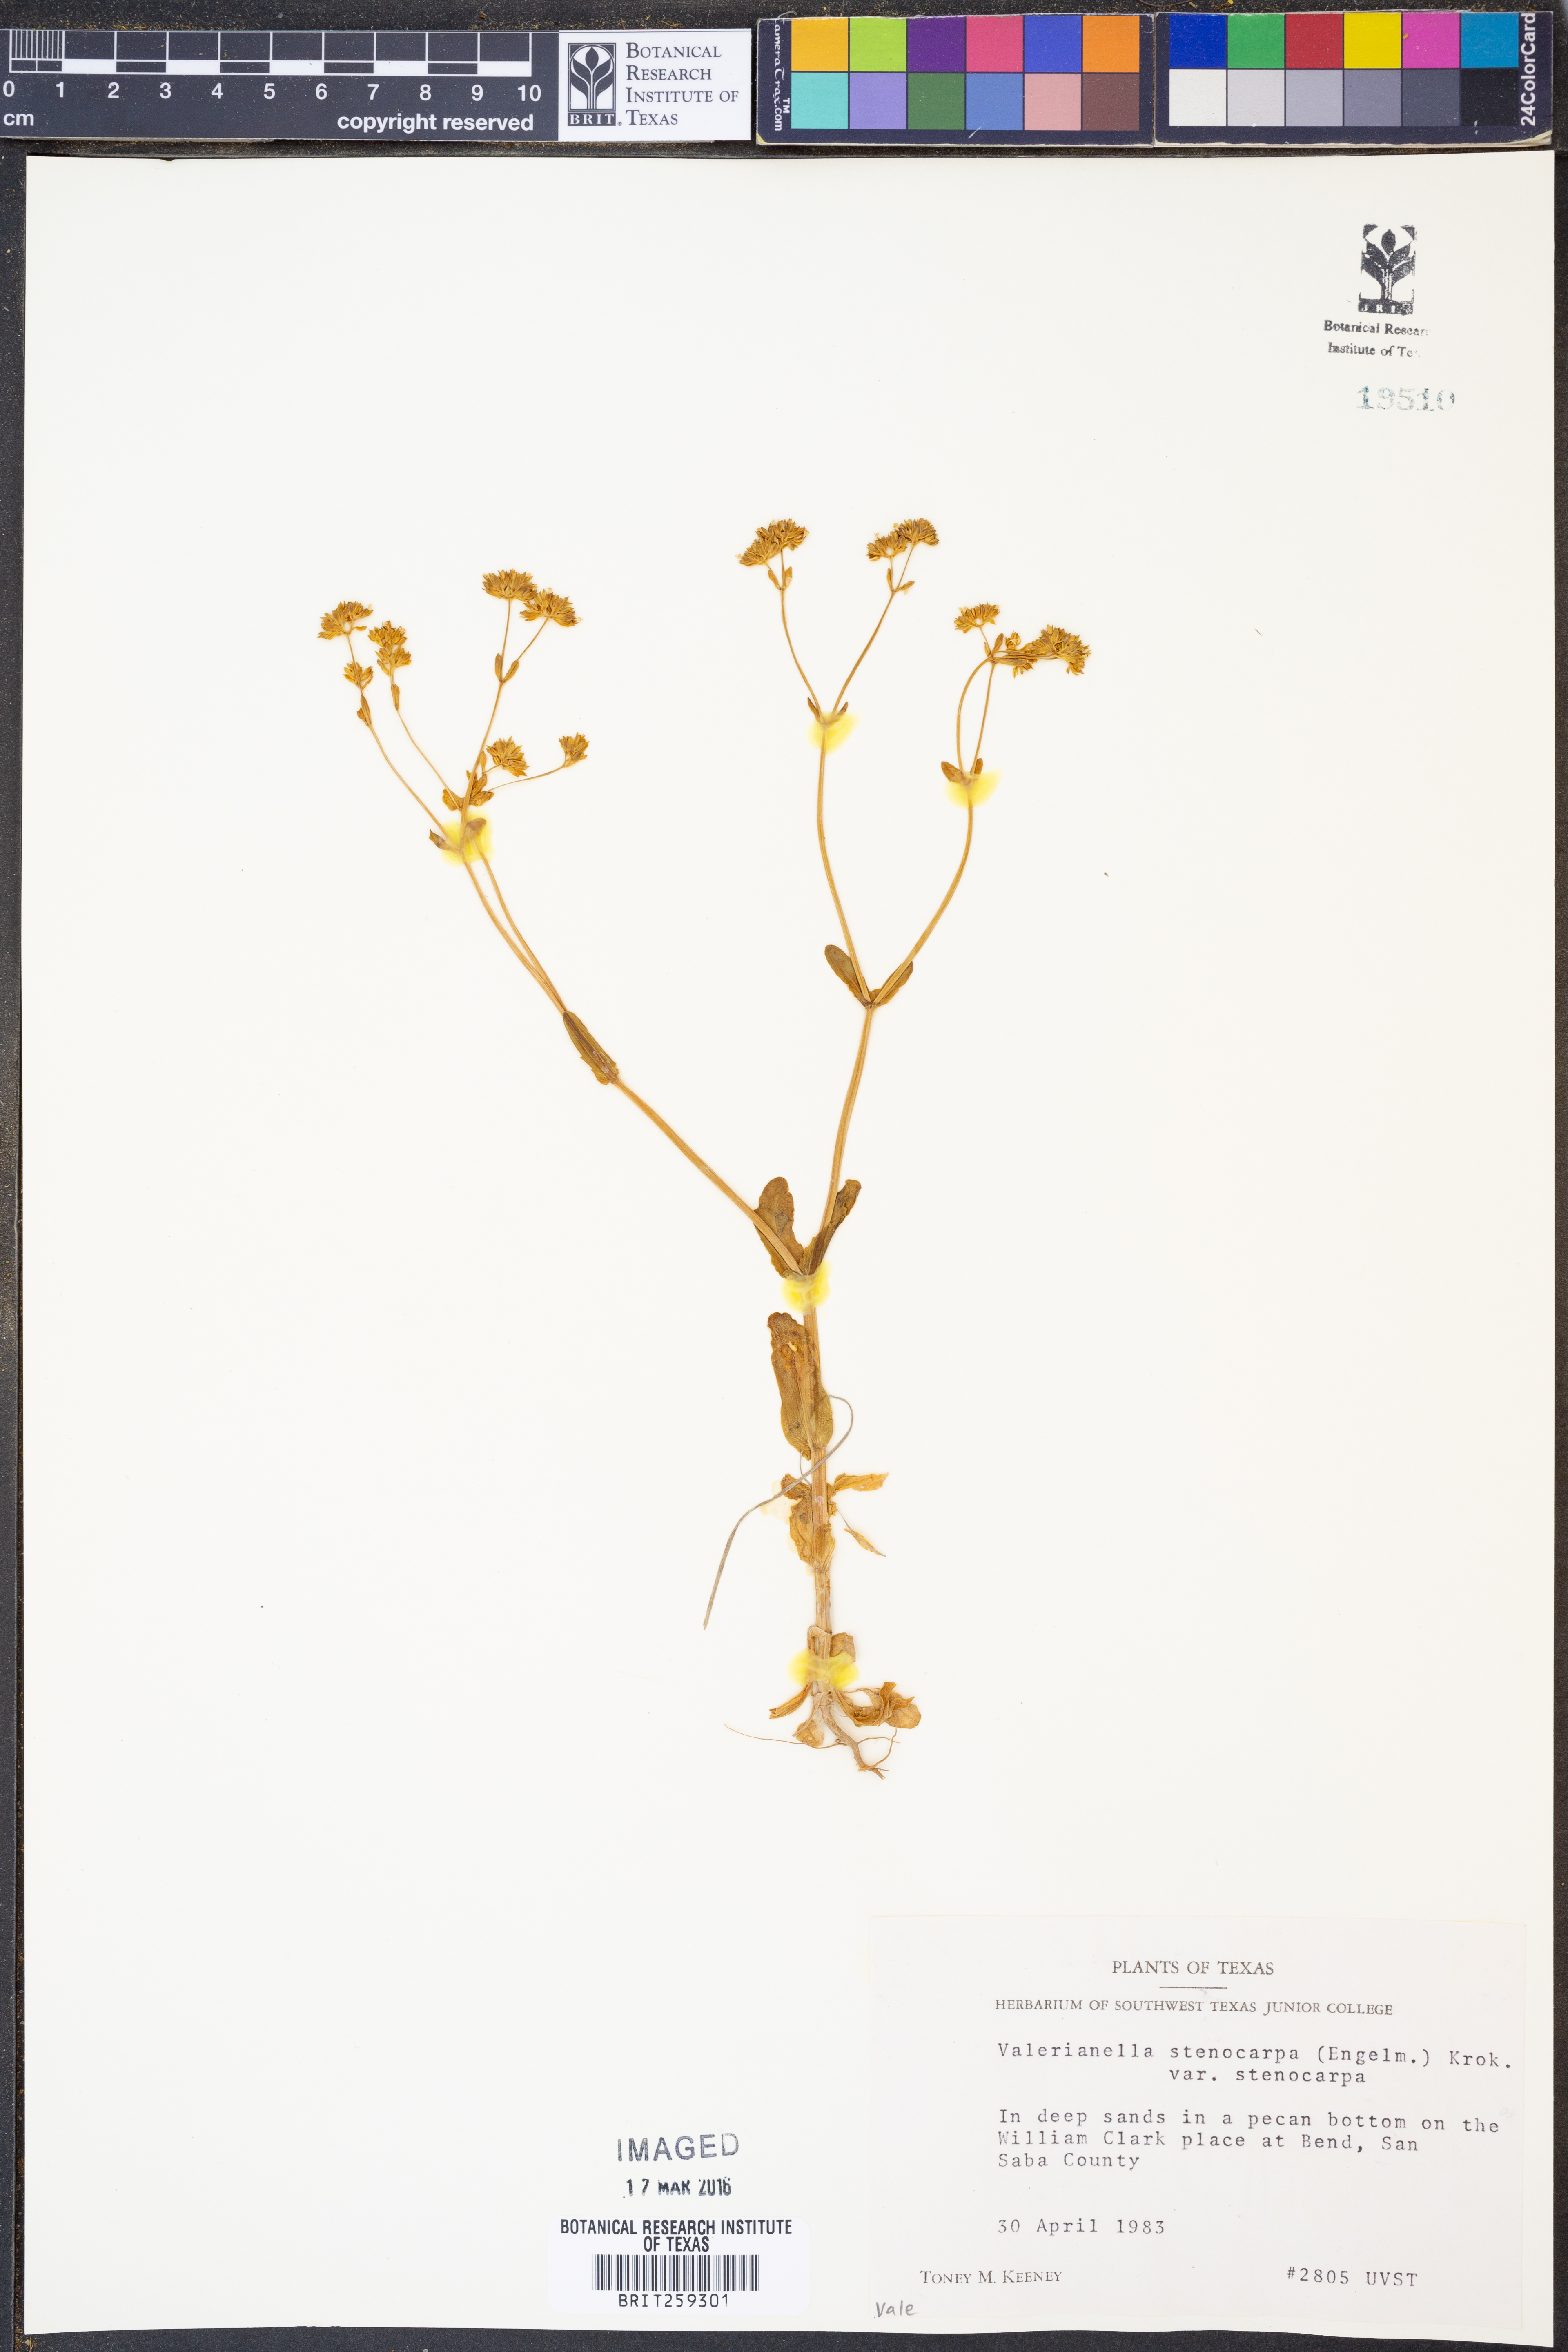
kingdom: Plantae
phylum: Tracheophyta
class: Magnoliopsida
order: Dipsacales
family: Caprifoliaceae
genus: Valerianella
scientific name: Valerianella stenocarpa
